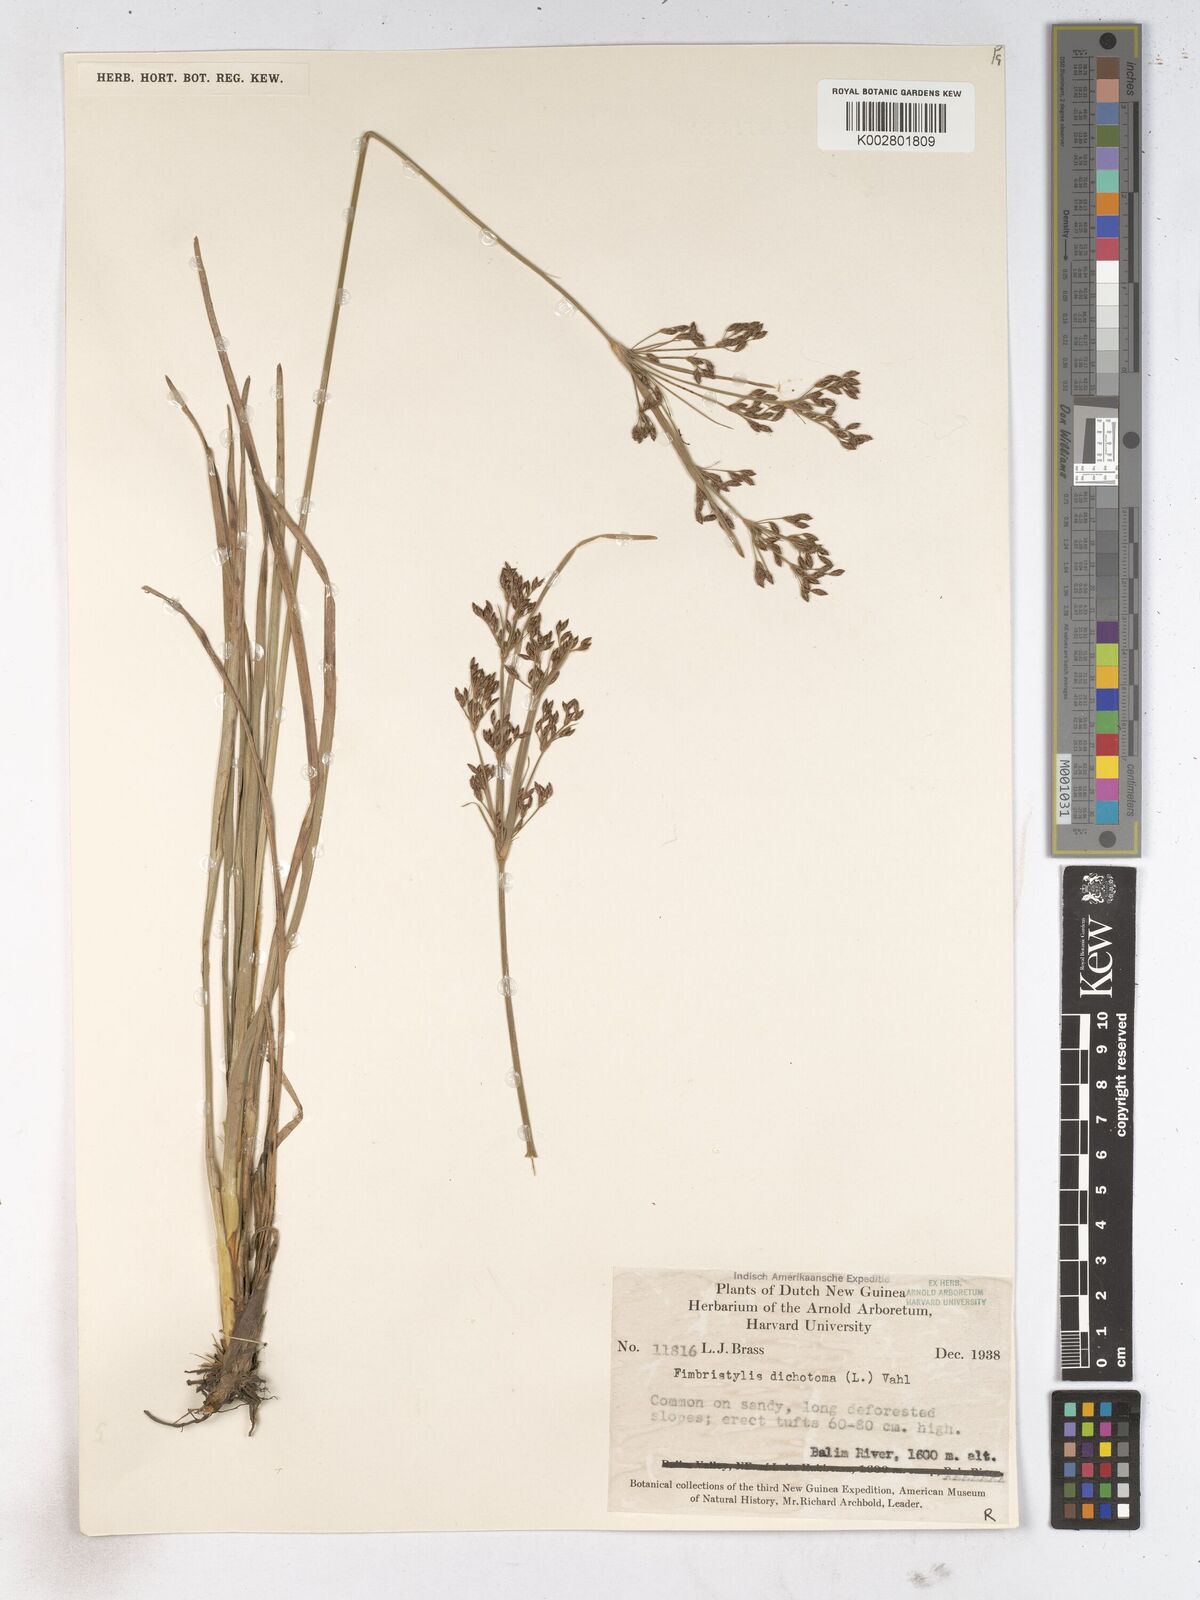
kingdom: Plantae
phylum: Tracheophyta
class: Liliopsida
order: Poales
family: Cyperaceae
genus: Fimbristylis
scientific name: Fimbristylis dichotoma
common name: Forked fimbry
